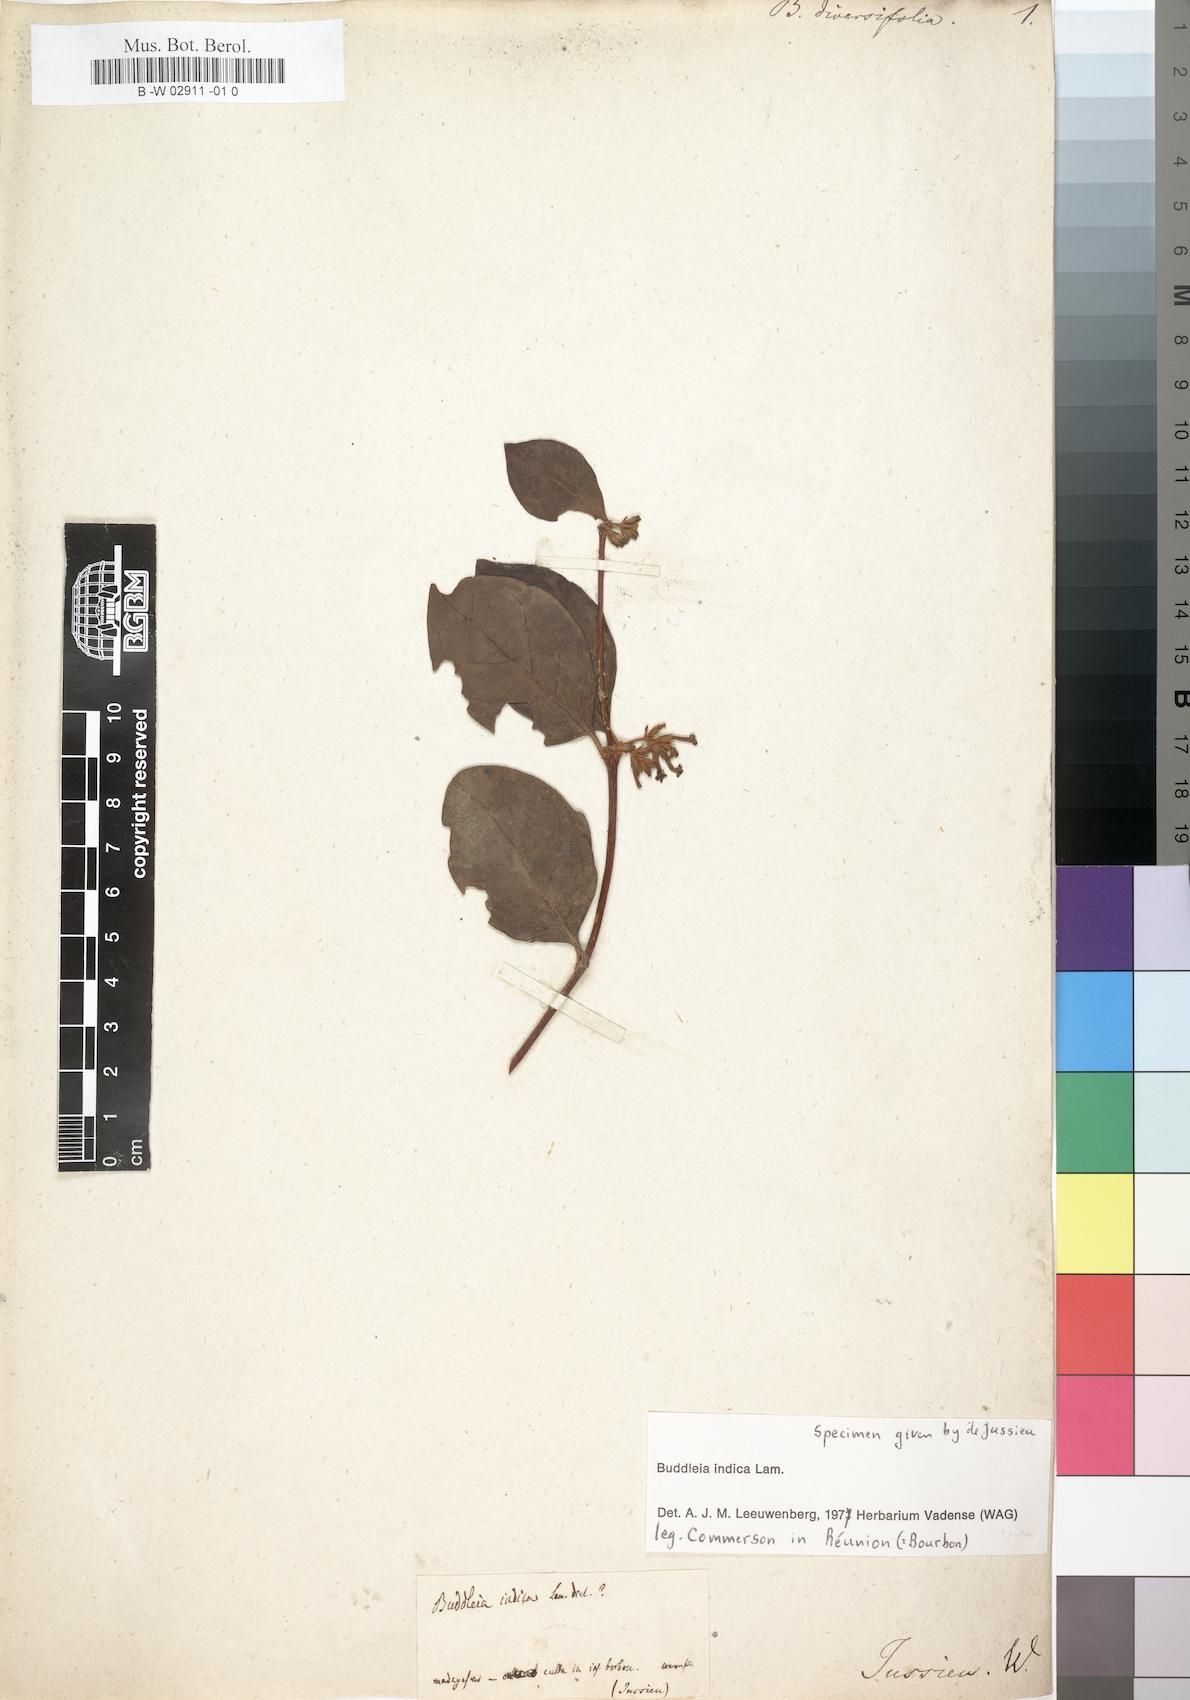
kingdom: Plantae
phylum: Tracheophyta
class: Magnoliopsida
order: Lamiales
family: Scrophulariaceae
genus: Buddleja
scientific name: Buddleja indica
